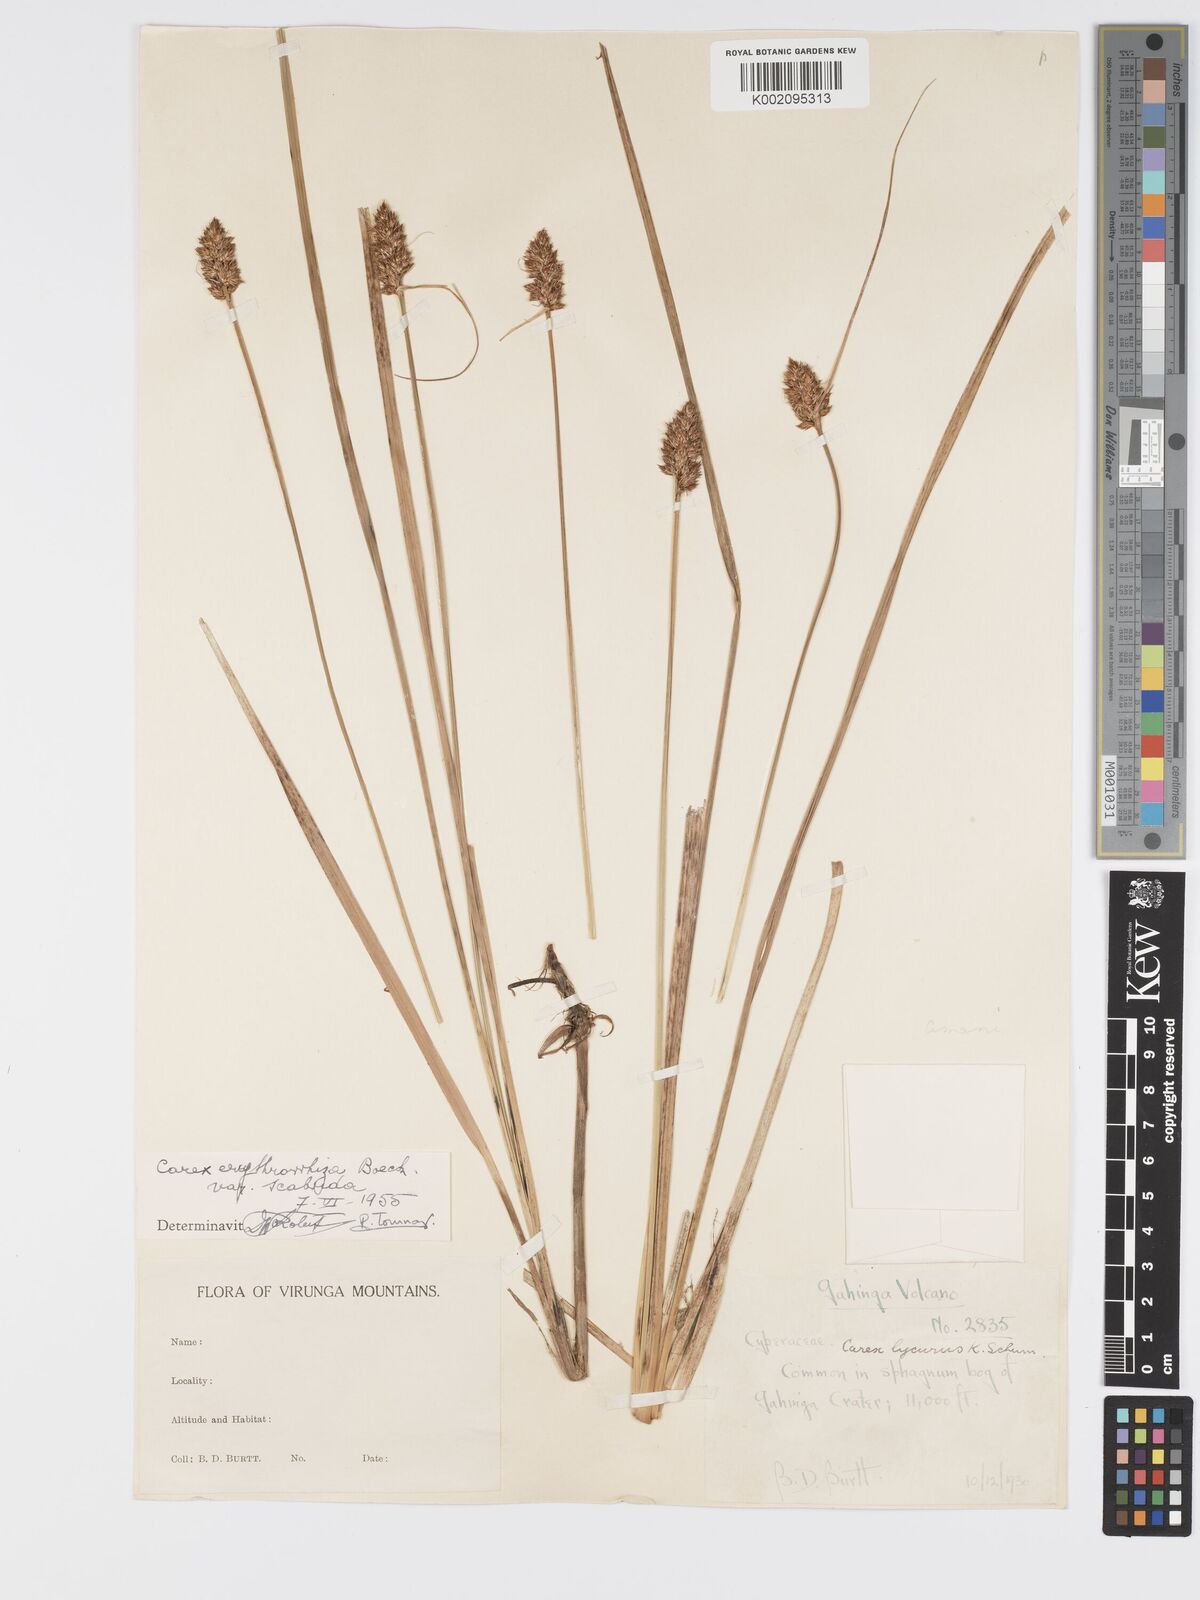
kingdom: Plantae
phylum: Tracheophyta
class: Liliopsida
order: Poales
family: Cyperaceae
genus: Carex
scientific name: Carex lycurus
